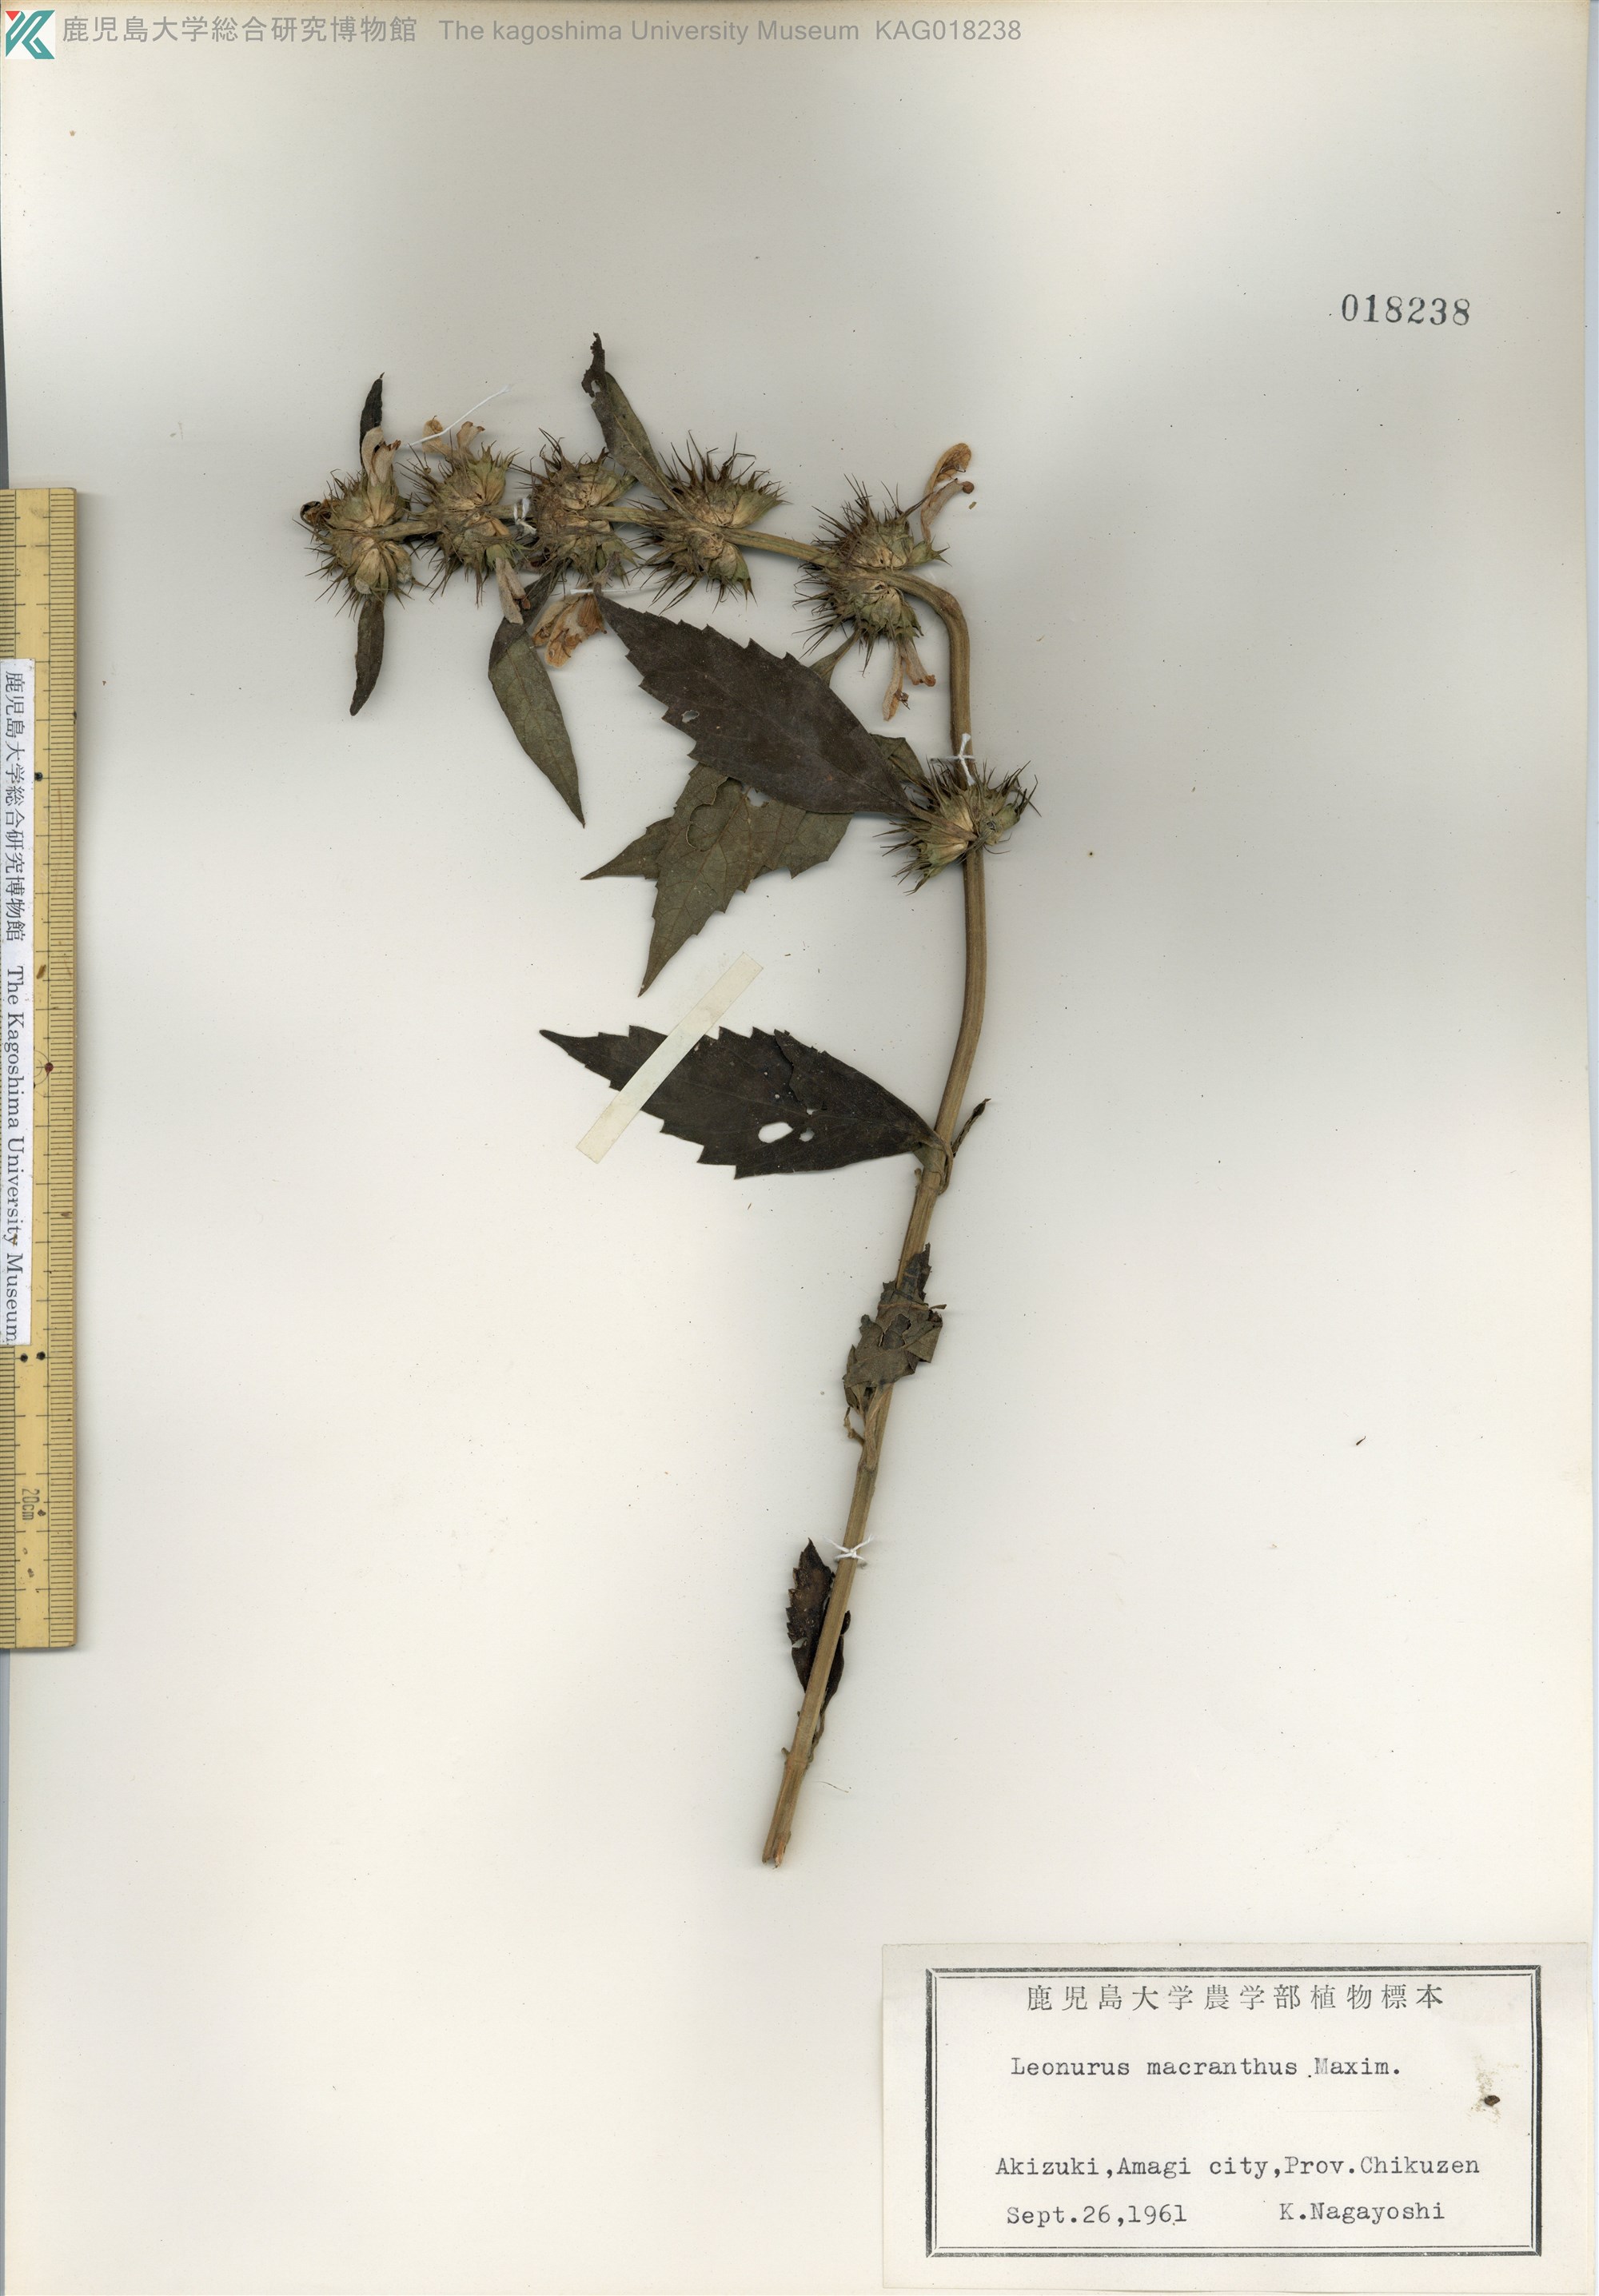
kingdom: Plantae
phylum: Tracheophyta
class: Magnoliopsida
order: Lamiales
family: Lamiaceae
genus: Leonurus
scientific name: Leonurus macranthus
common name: キセワタ
